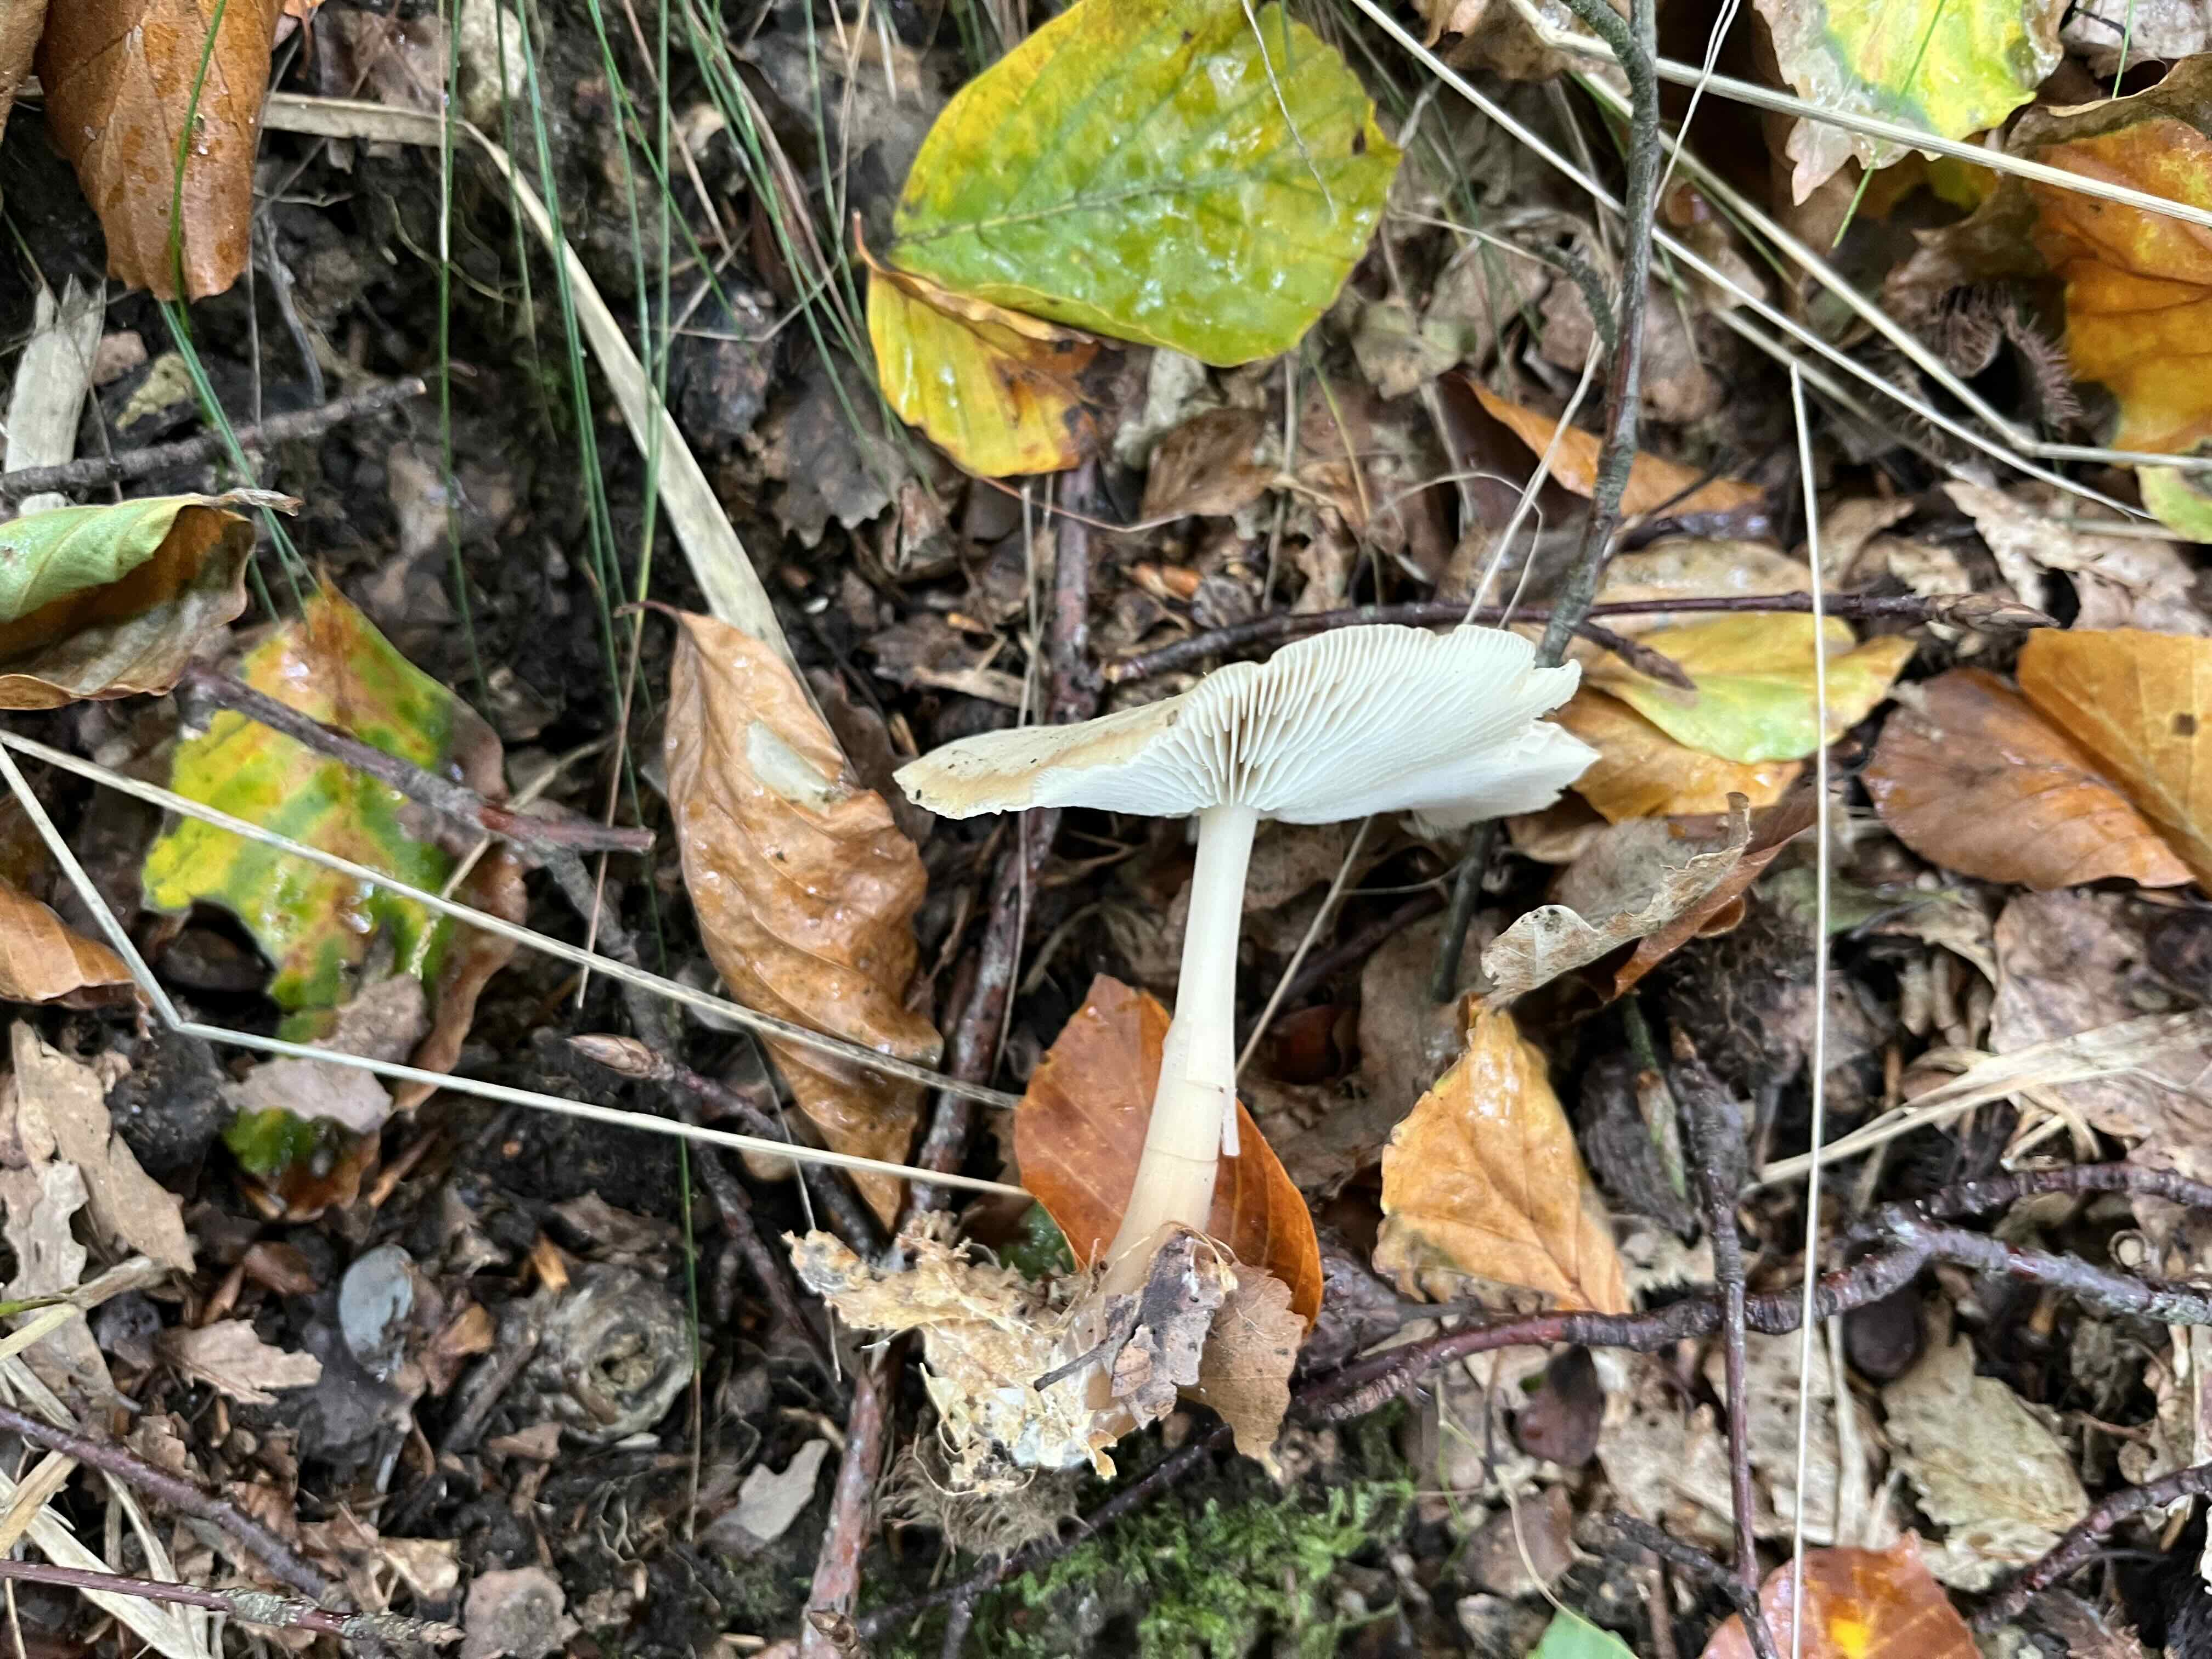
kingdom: Fungi
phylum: Basidiomycota
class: Agaricomycetes
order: Agaricales
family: Omphalotaceae
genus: Rhodocollybia
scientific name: Rhodocollybia asema
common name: horngrå fladhat
